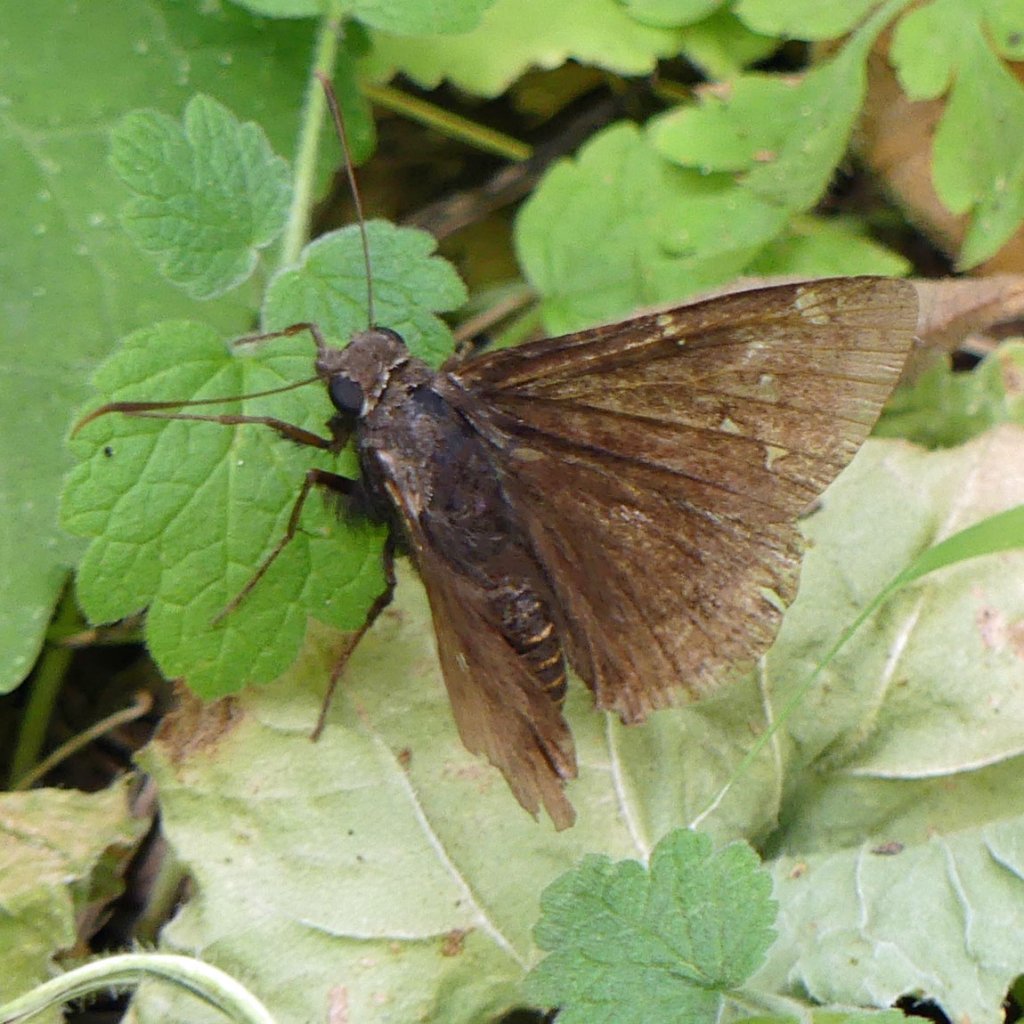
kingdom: Animalia
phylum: Arthropoda
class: Insecta
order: Lepidoptera
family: Hesperiidae
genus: Autochton
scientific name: Autochton
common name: Northern Cloudywing
